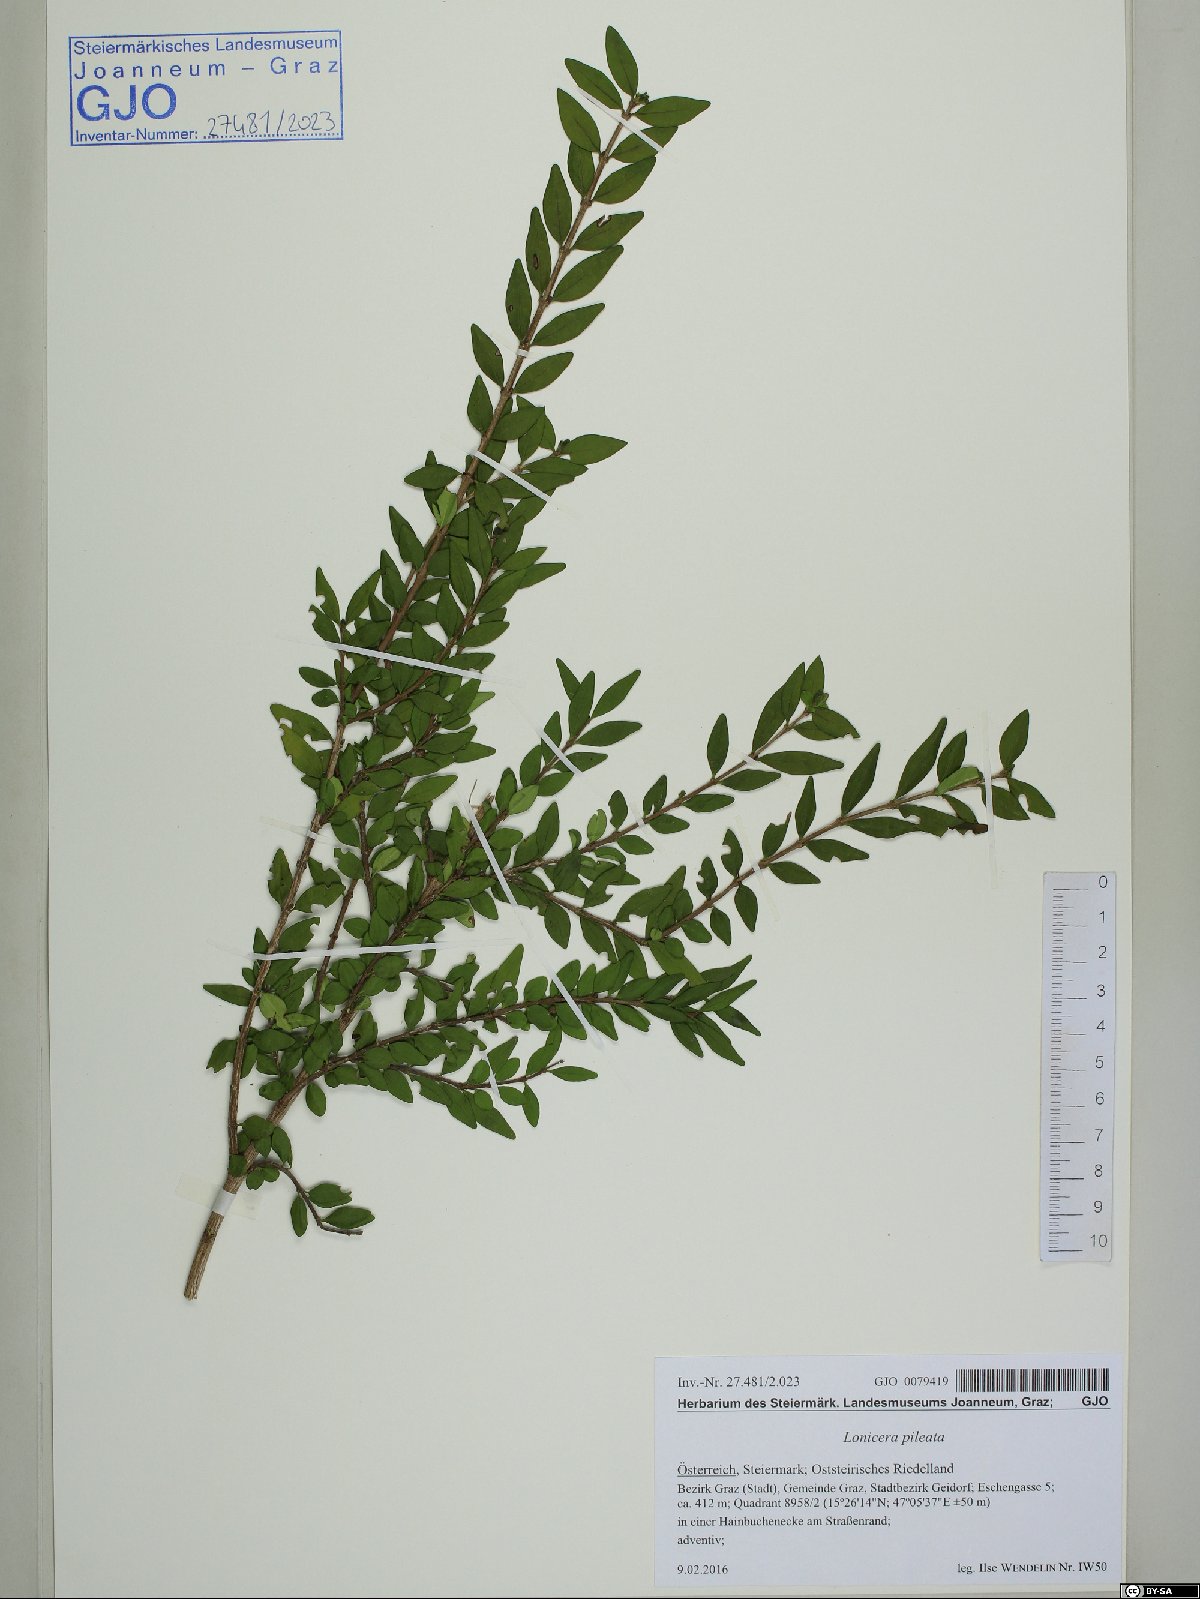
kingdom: Plantae
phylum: Tracheophyta
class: Magnoliopsida
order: Dipsacales
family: Caprifoliaceae
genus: Lonicera
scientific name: Lonicera pileata
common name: Box-leaved honeysuckle
